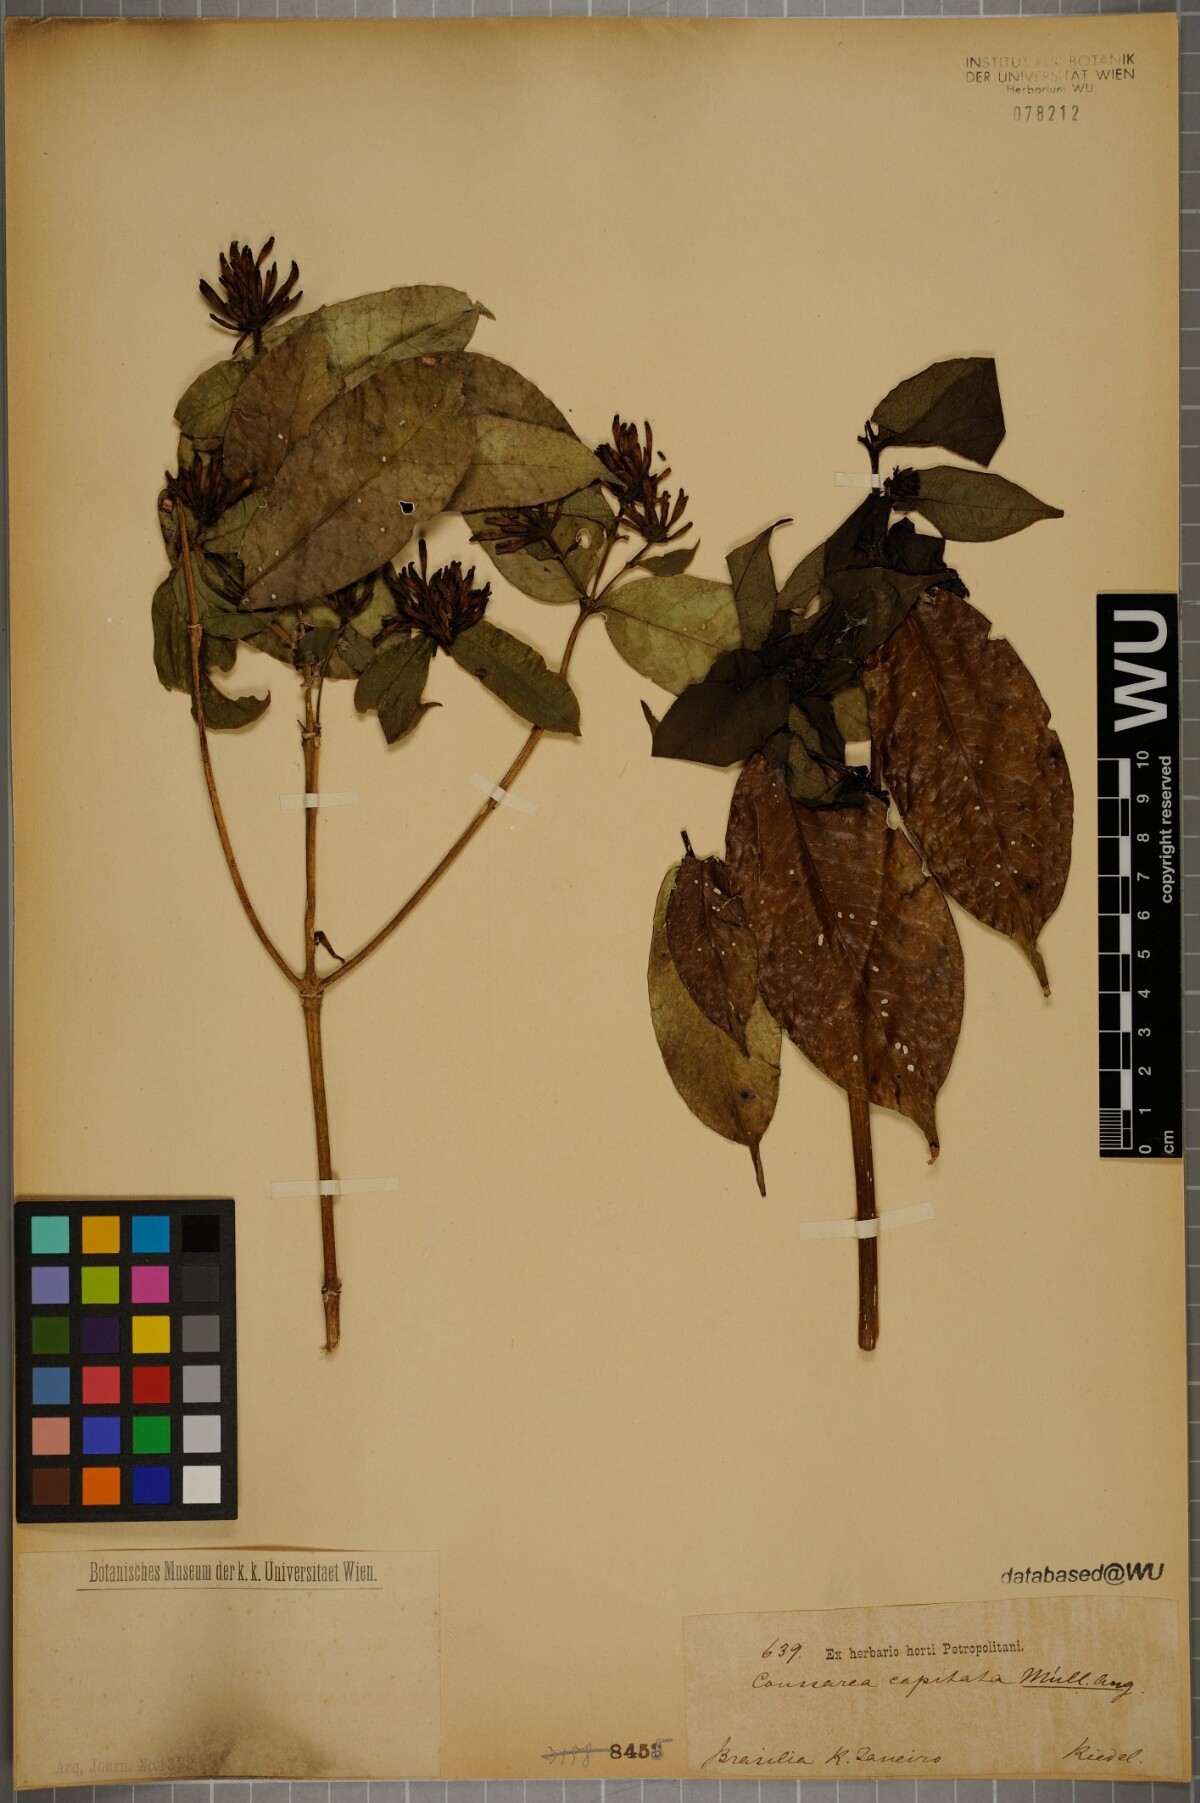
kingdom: Plantae
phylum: Tracheophyta
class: Magnoliopsida
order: Gentianales
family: Rubiaceae
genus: Coussarea
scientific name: Coussarea capitata
